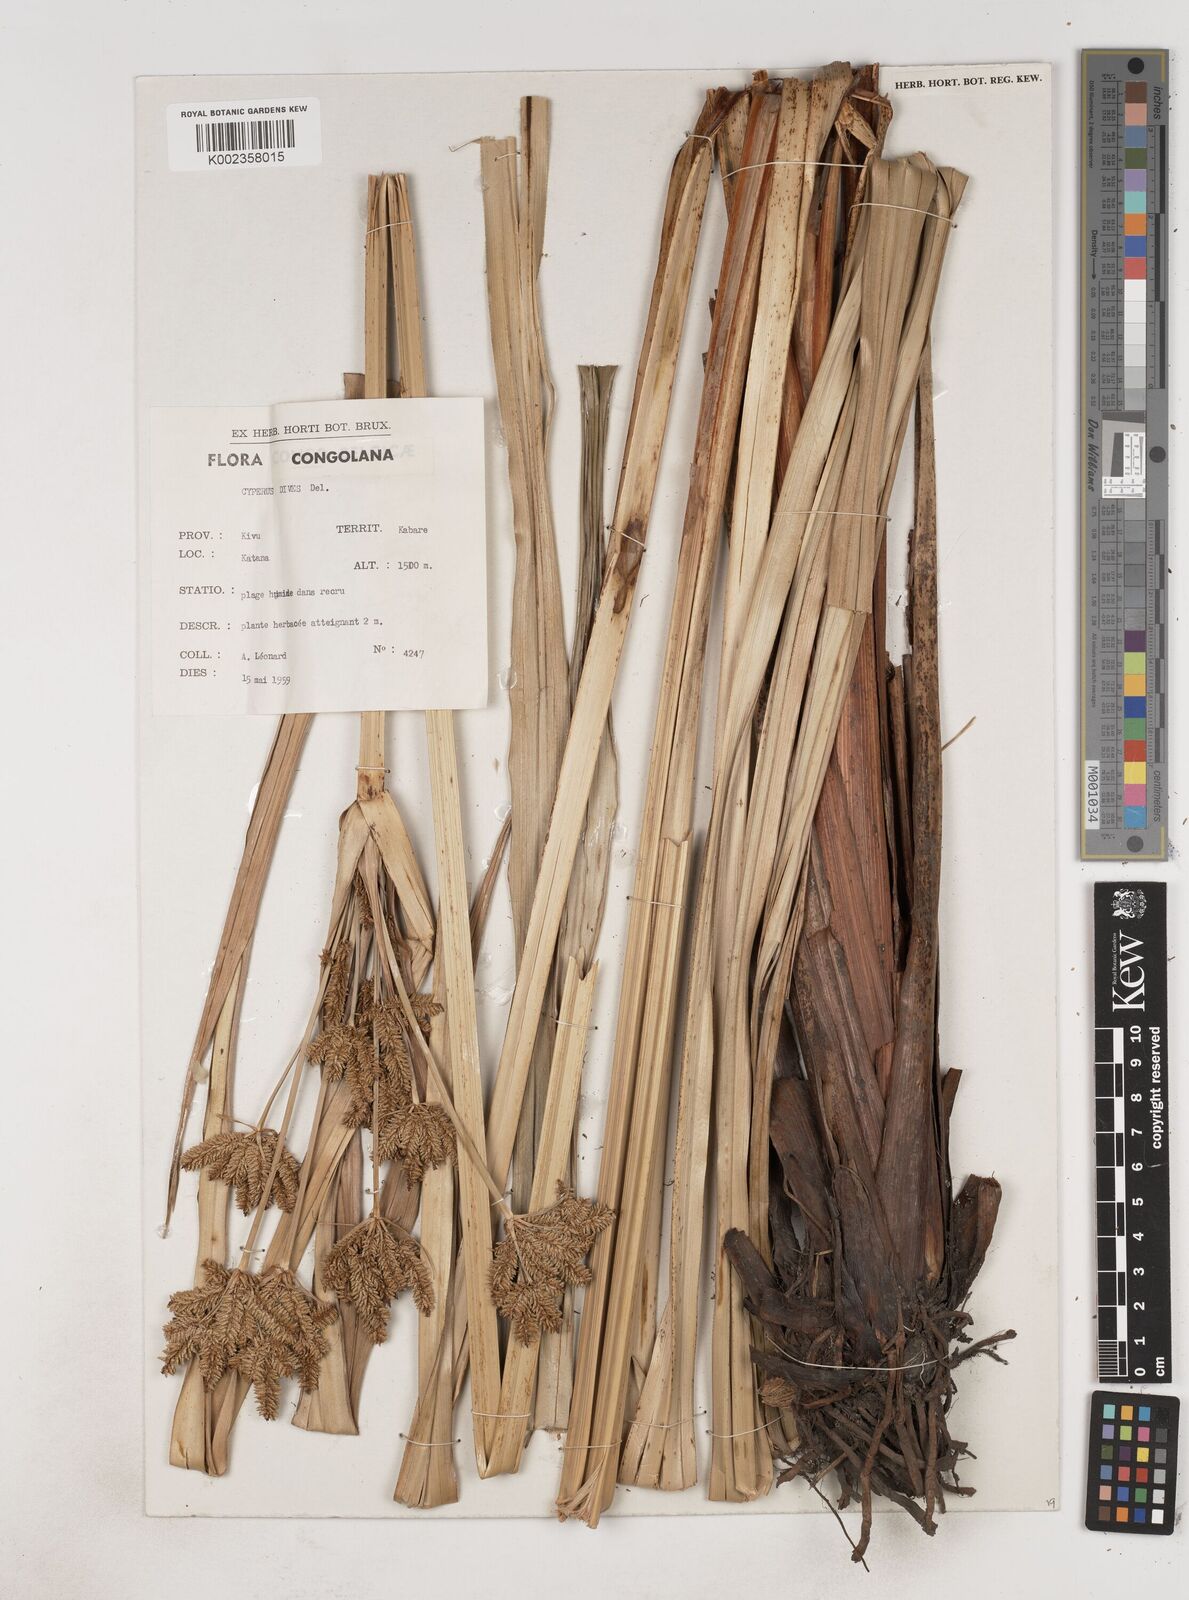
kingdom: Plantae
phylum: Tracheophyta
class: Liliopsida
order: Poales
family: Cyperaceae
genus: Cyperus
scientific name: Cyperus dives
